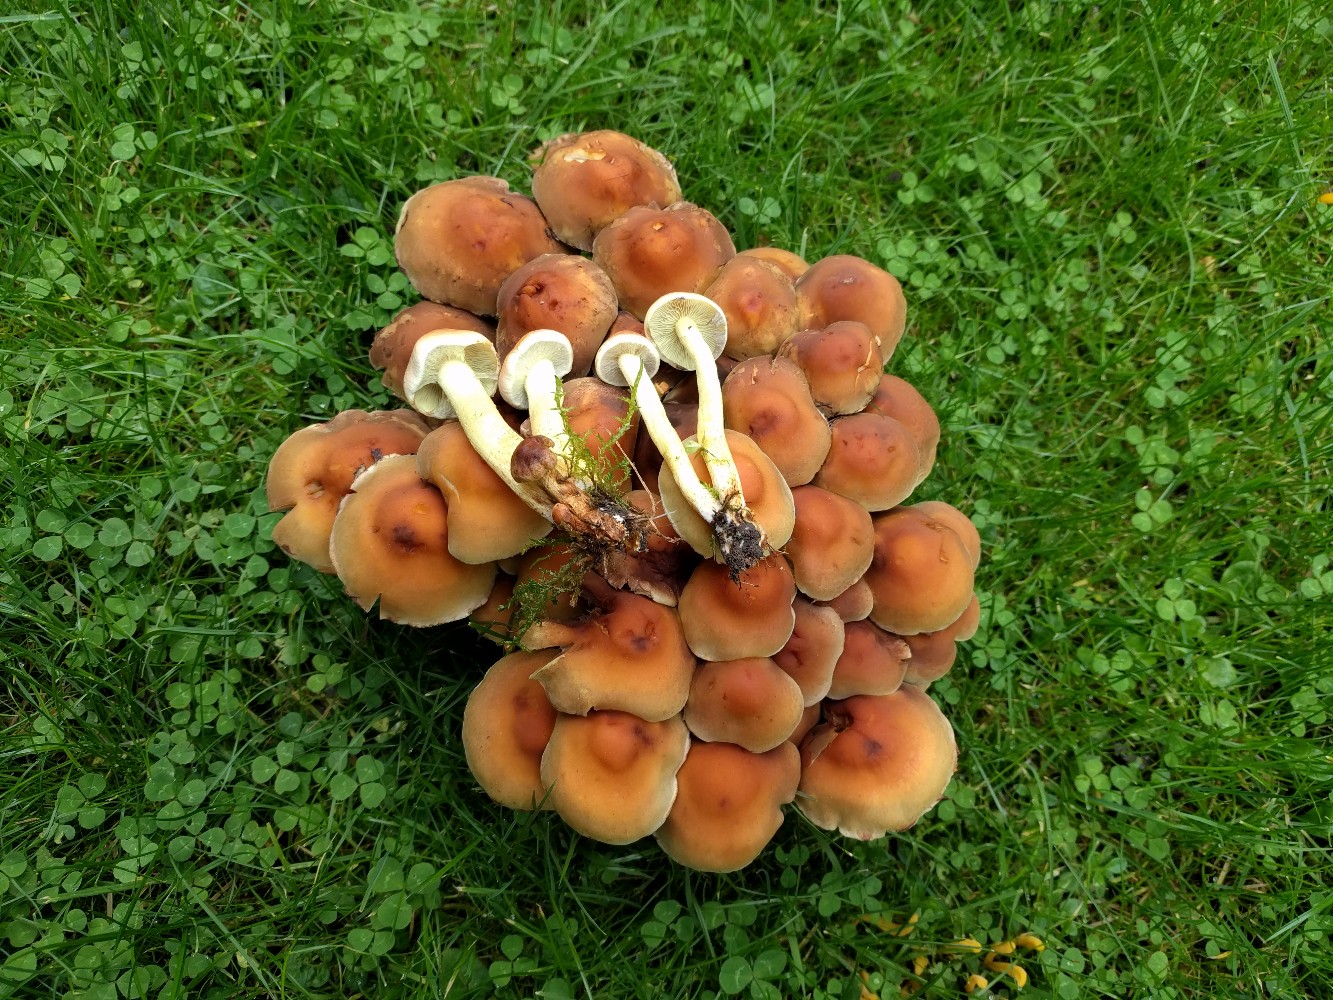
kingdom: Fungi
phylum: Basidiomycota
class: Agaricomycetes
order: Agaricales
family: Strophariaceae
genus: Hypholoma
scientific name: Hypholoma fasciculare
